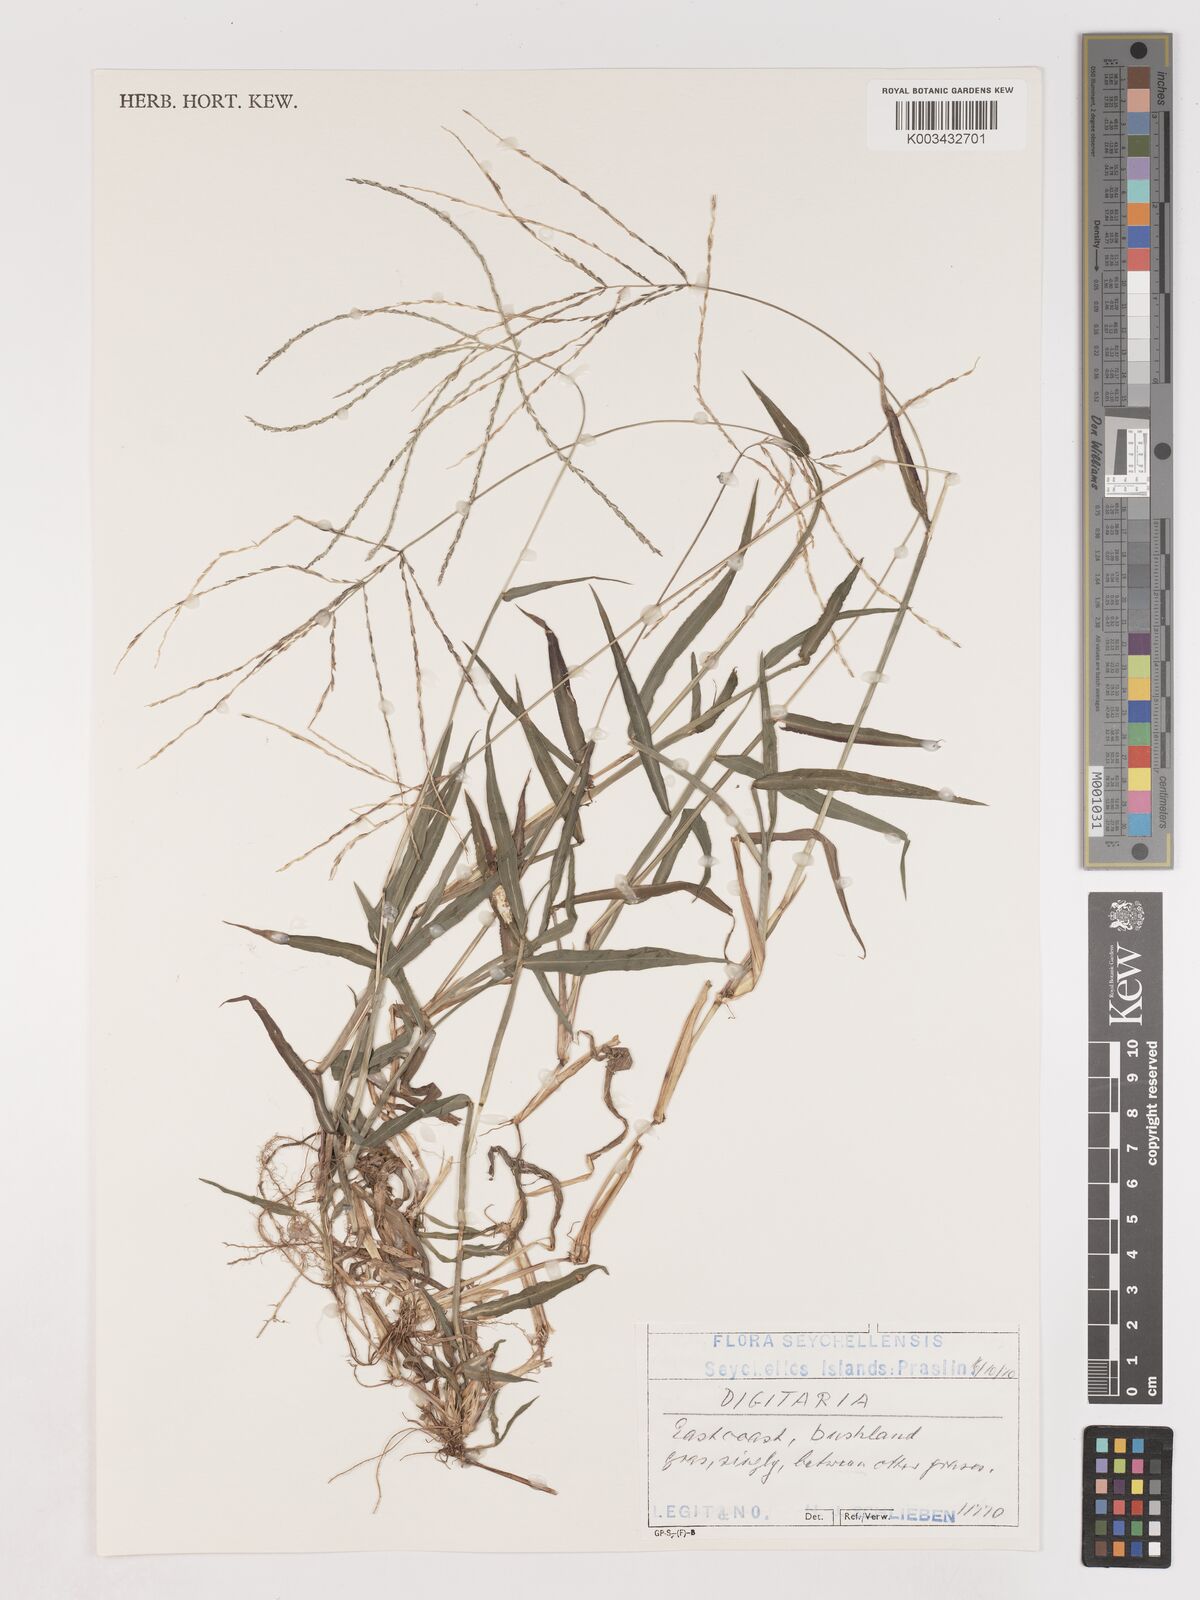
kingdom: Plantae
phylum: Tracheophyta
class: Liliopsida
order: Poales
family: Poaceae
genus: Digitaria
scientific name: Digitaria spec
